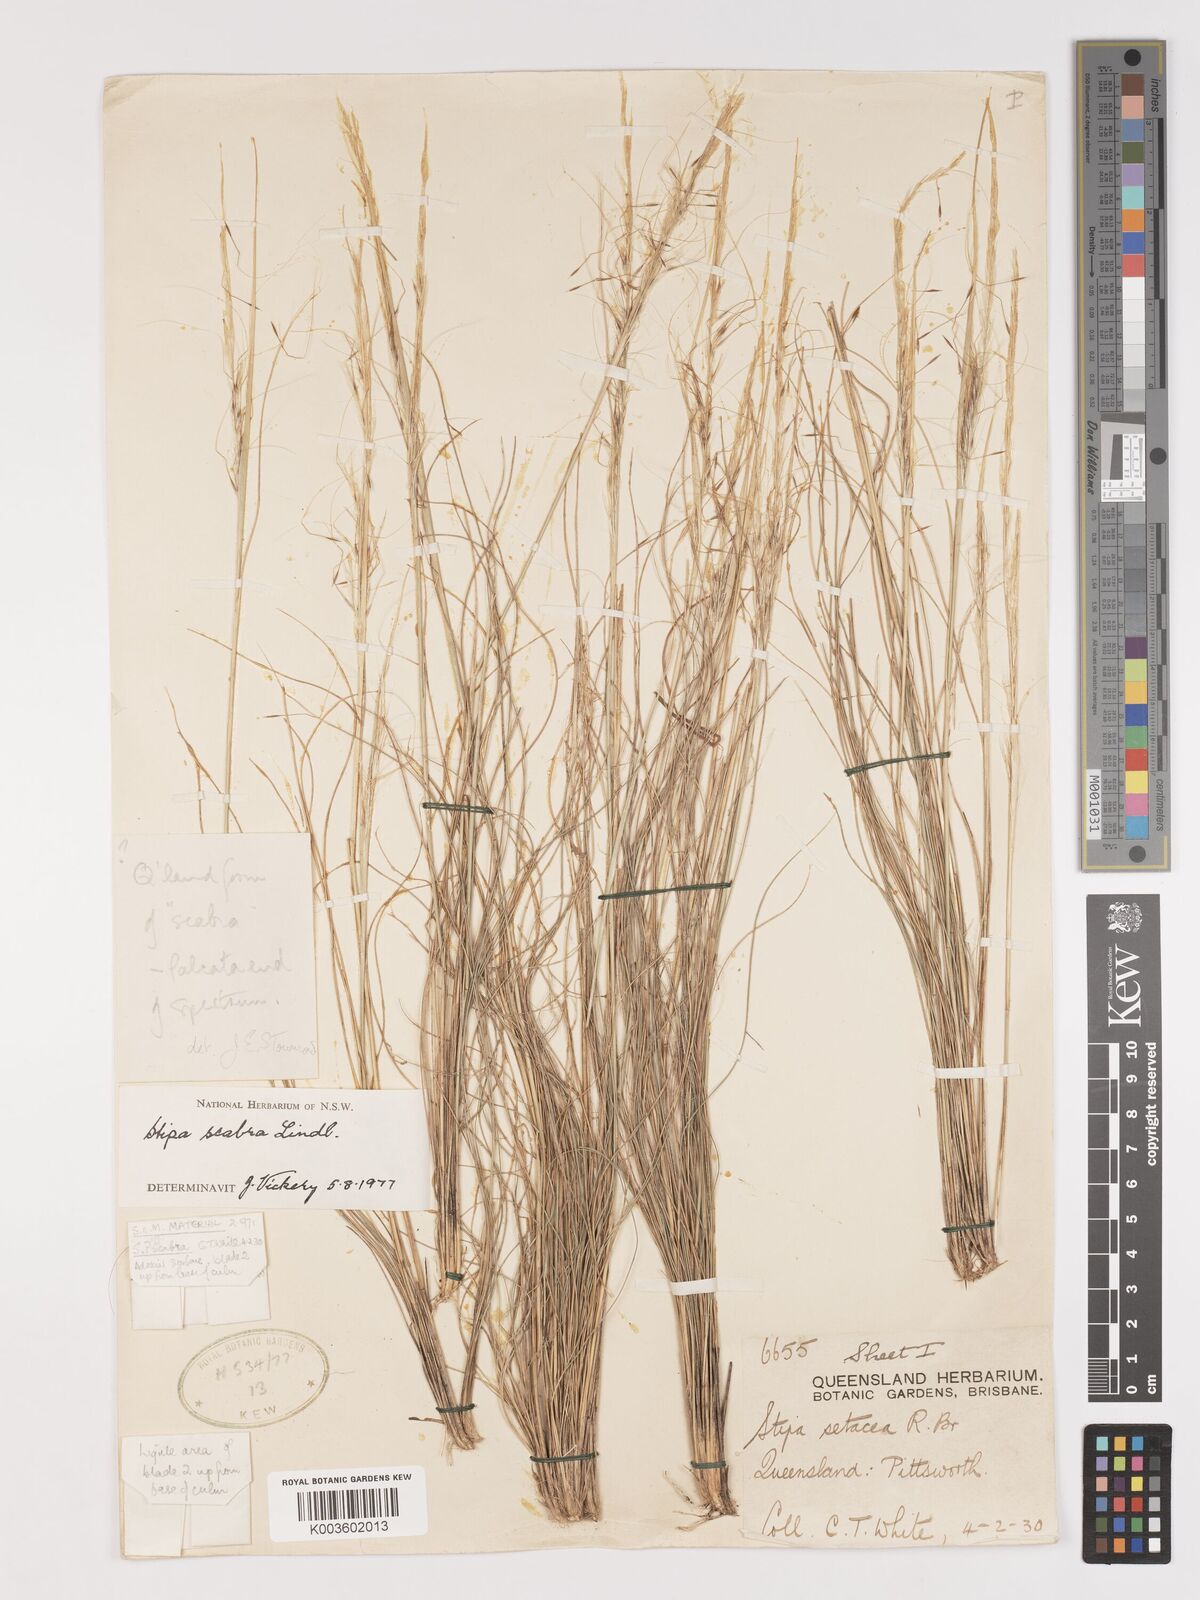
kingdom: Plantae
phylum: Tracheophyta
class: Liliopsida
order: Poales
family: Poaceae
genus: Austrostipa
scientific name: Austrostipa scabra
